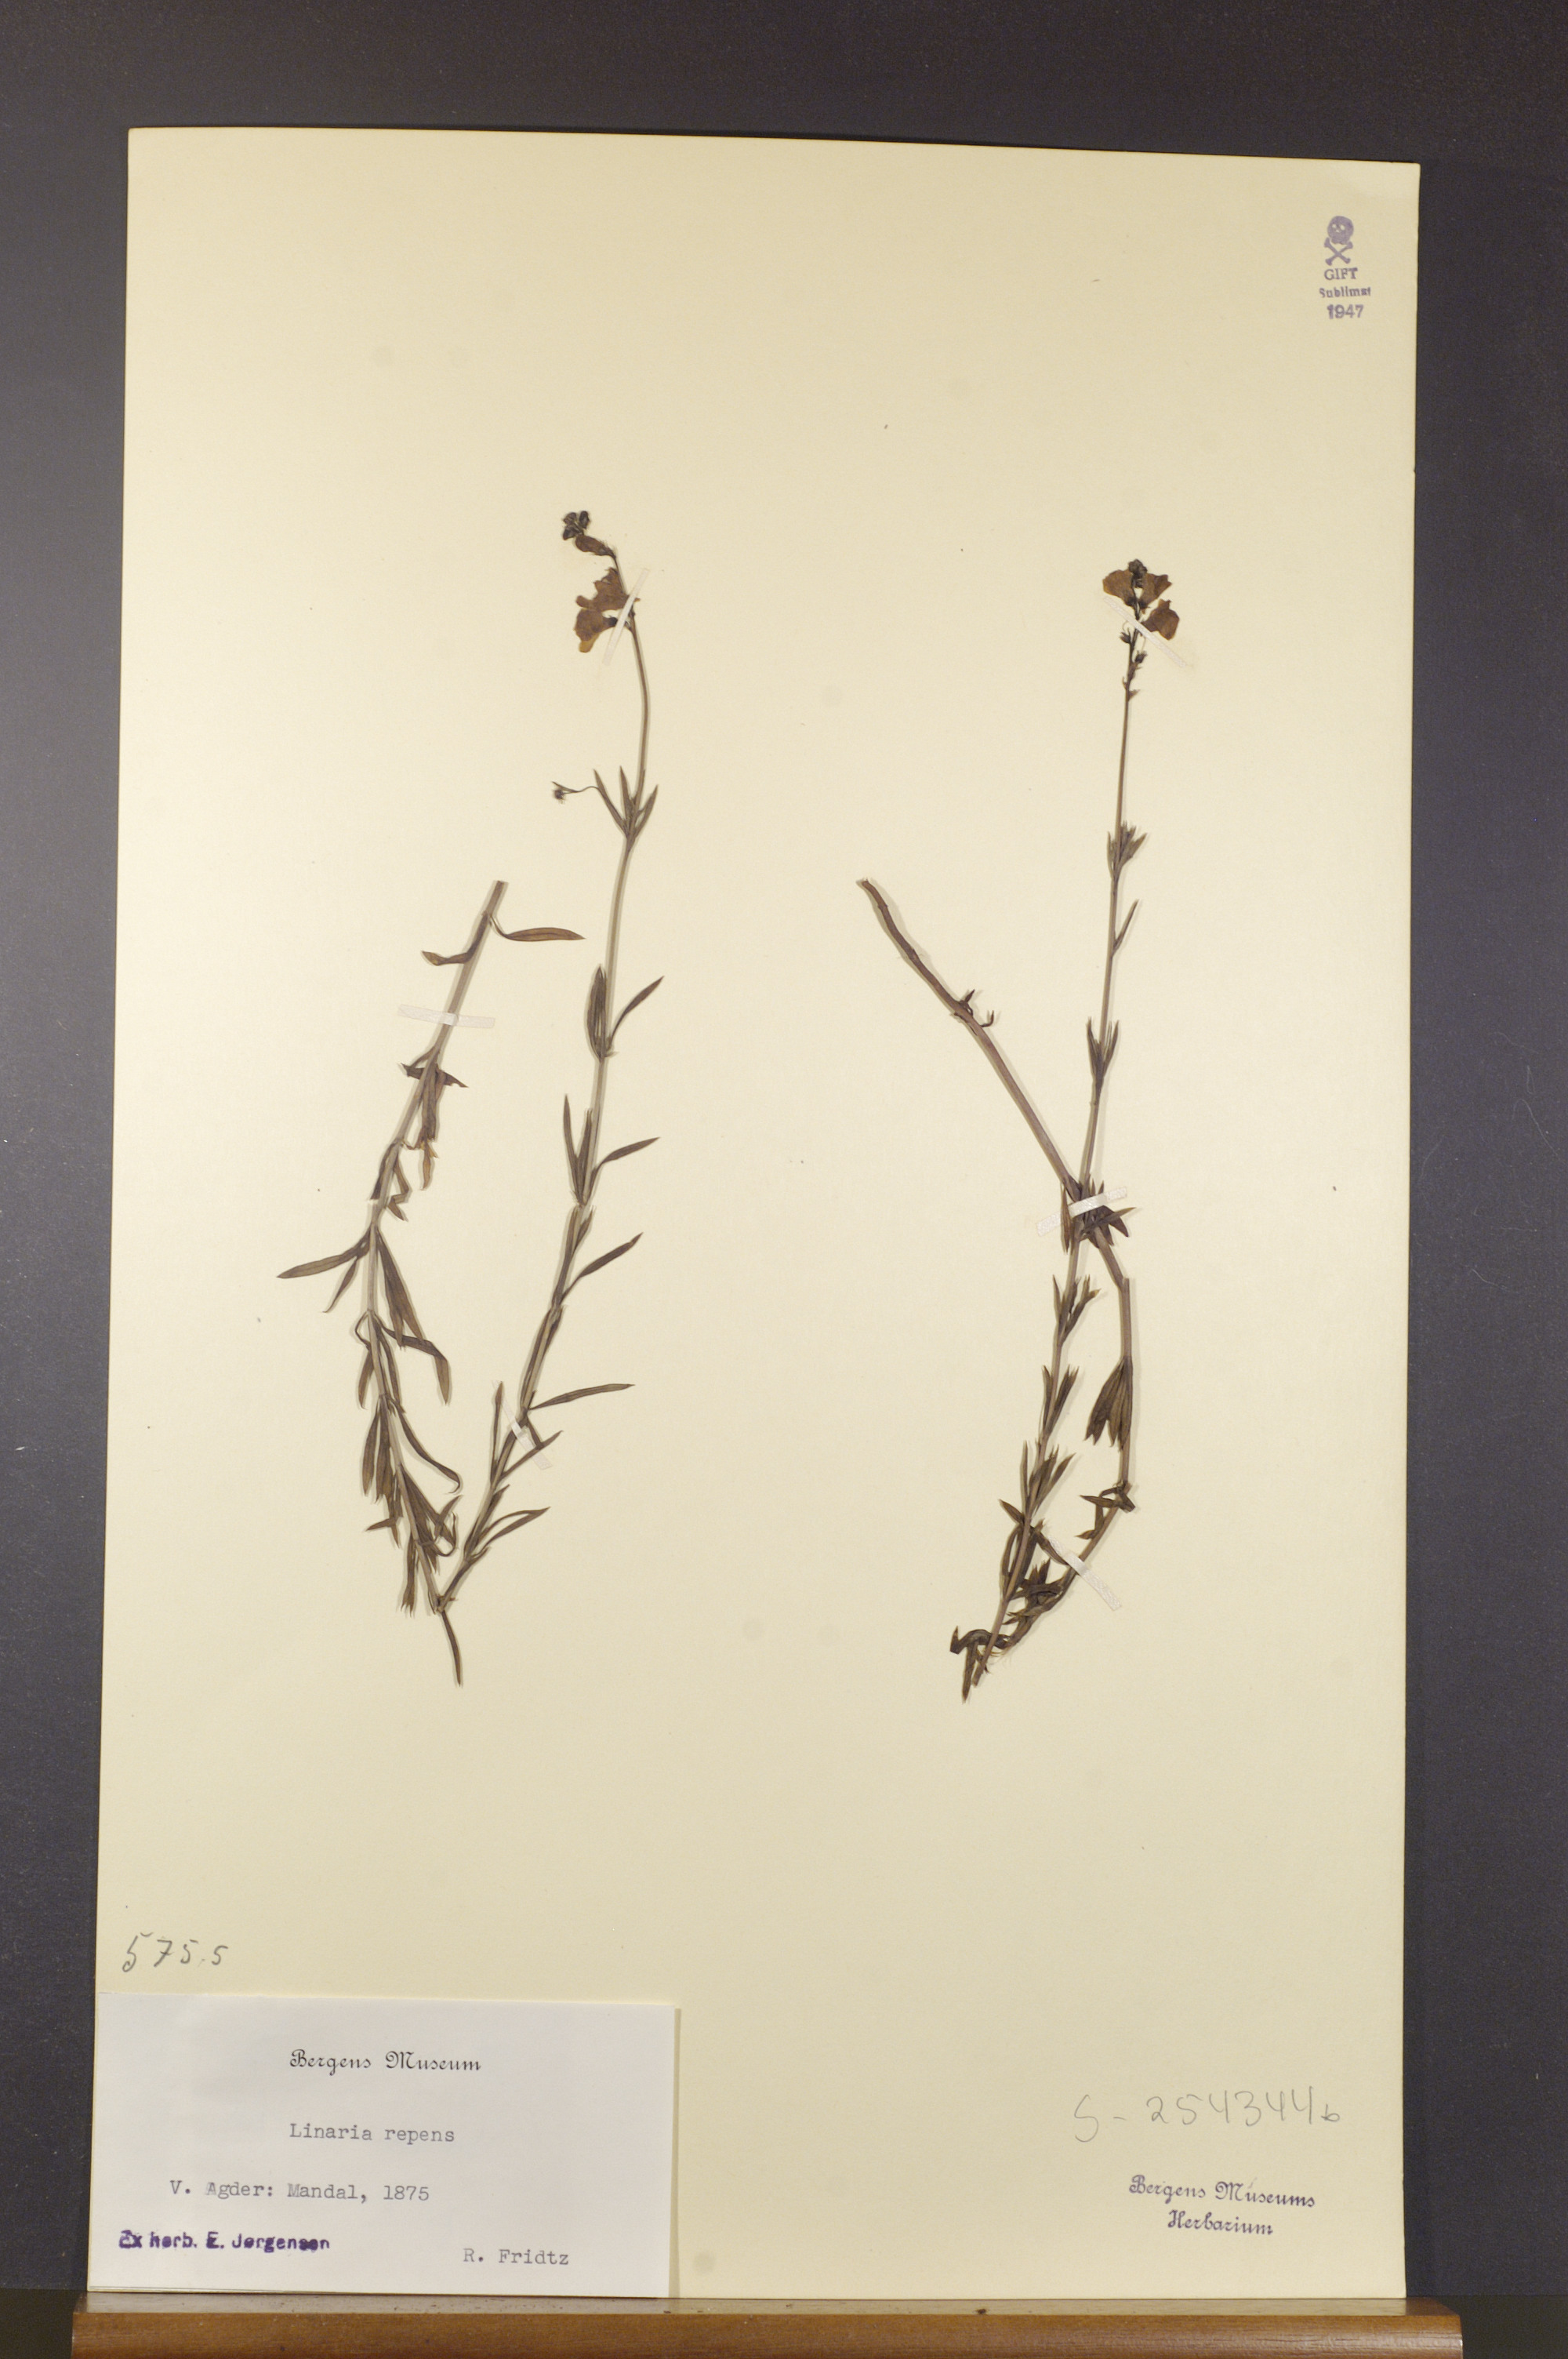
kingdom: Plantae
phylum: Tracheophyta
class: Magnoliopsida
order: Lamiales
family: Plantaginaceae
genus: Linaria
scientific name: Linaria repens
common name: Pale toadflax
